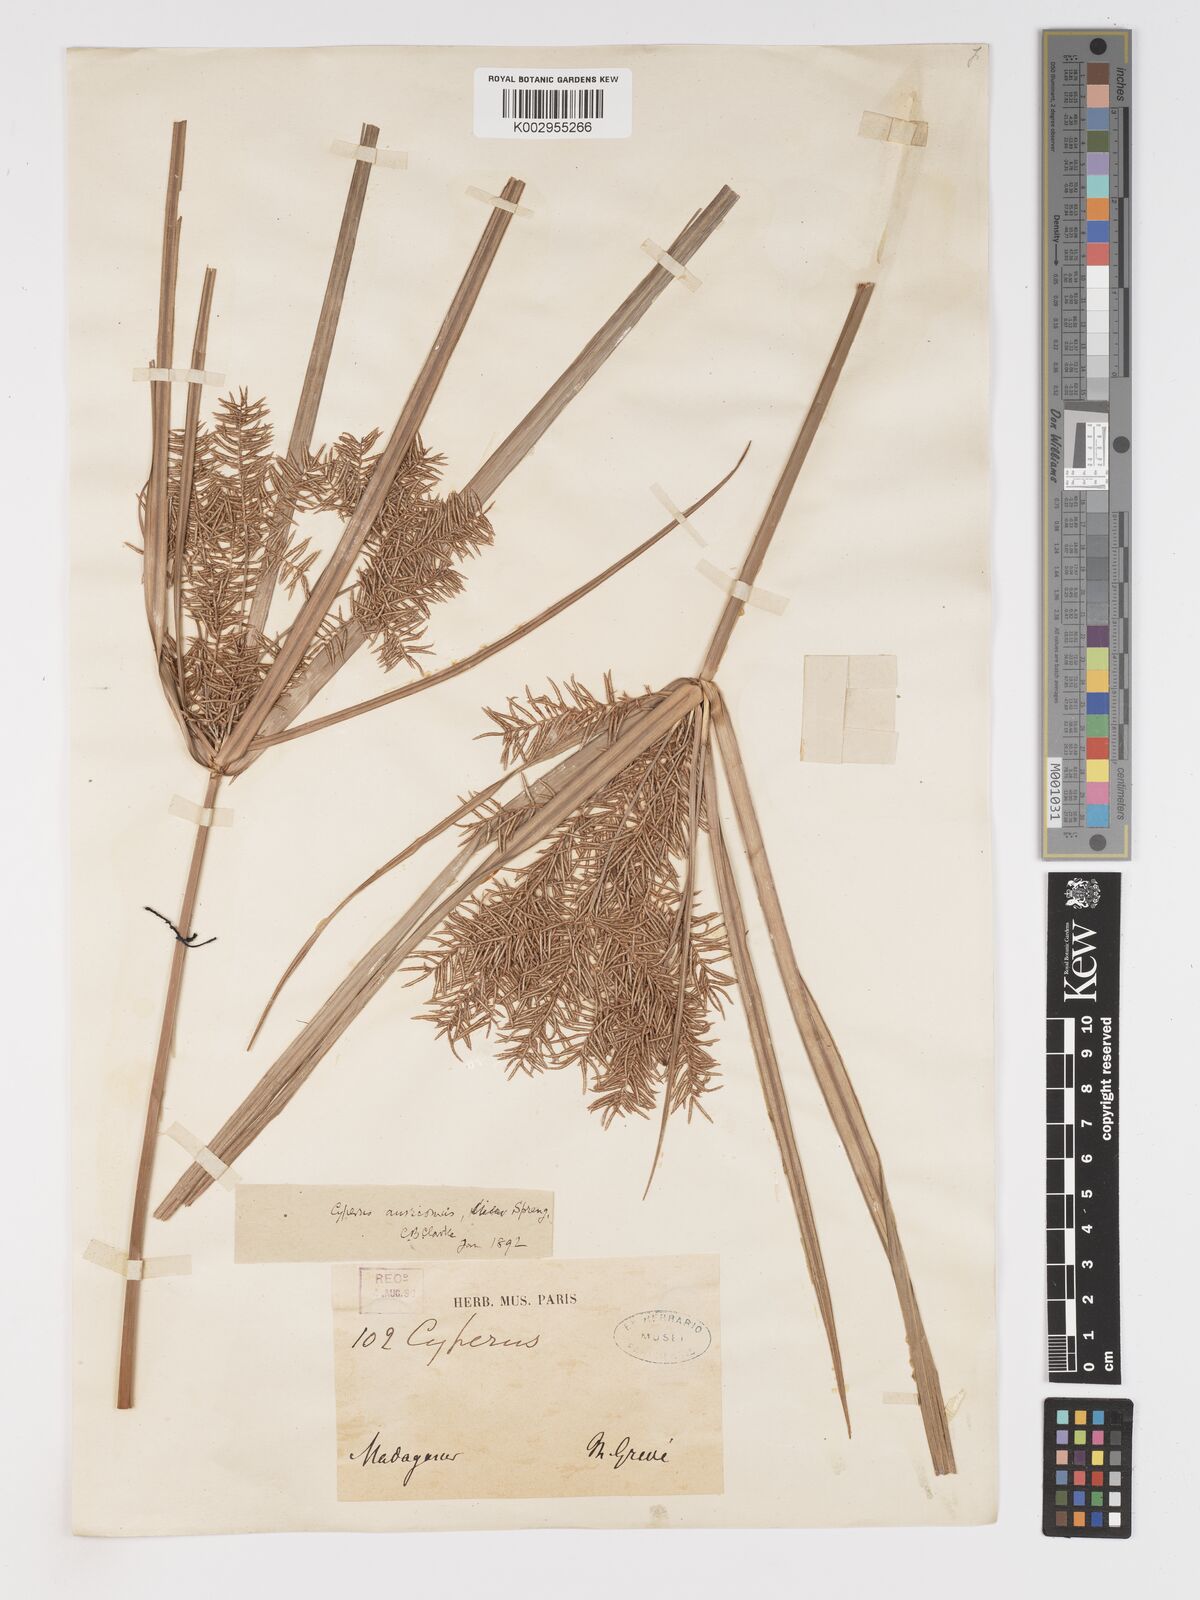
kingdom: Plantae
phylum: Tracheophyta
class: Liliopsida
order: Poales
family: Cyperaceae
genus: Cyperus
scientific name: Cyperus digitatus
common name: Finger flatsedge
